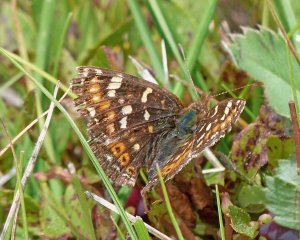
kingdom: Animalia
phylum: Arthropoda
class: Insecta
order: Lepidoptera
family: Nymphalidae
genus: Phyciodes
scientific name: Phyciodes tharos
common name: Field Crescent
